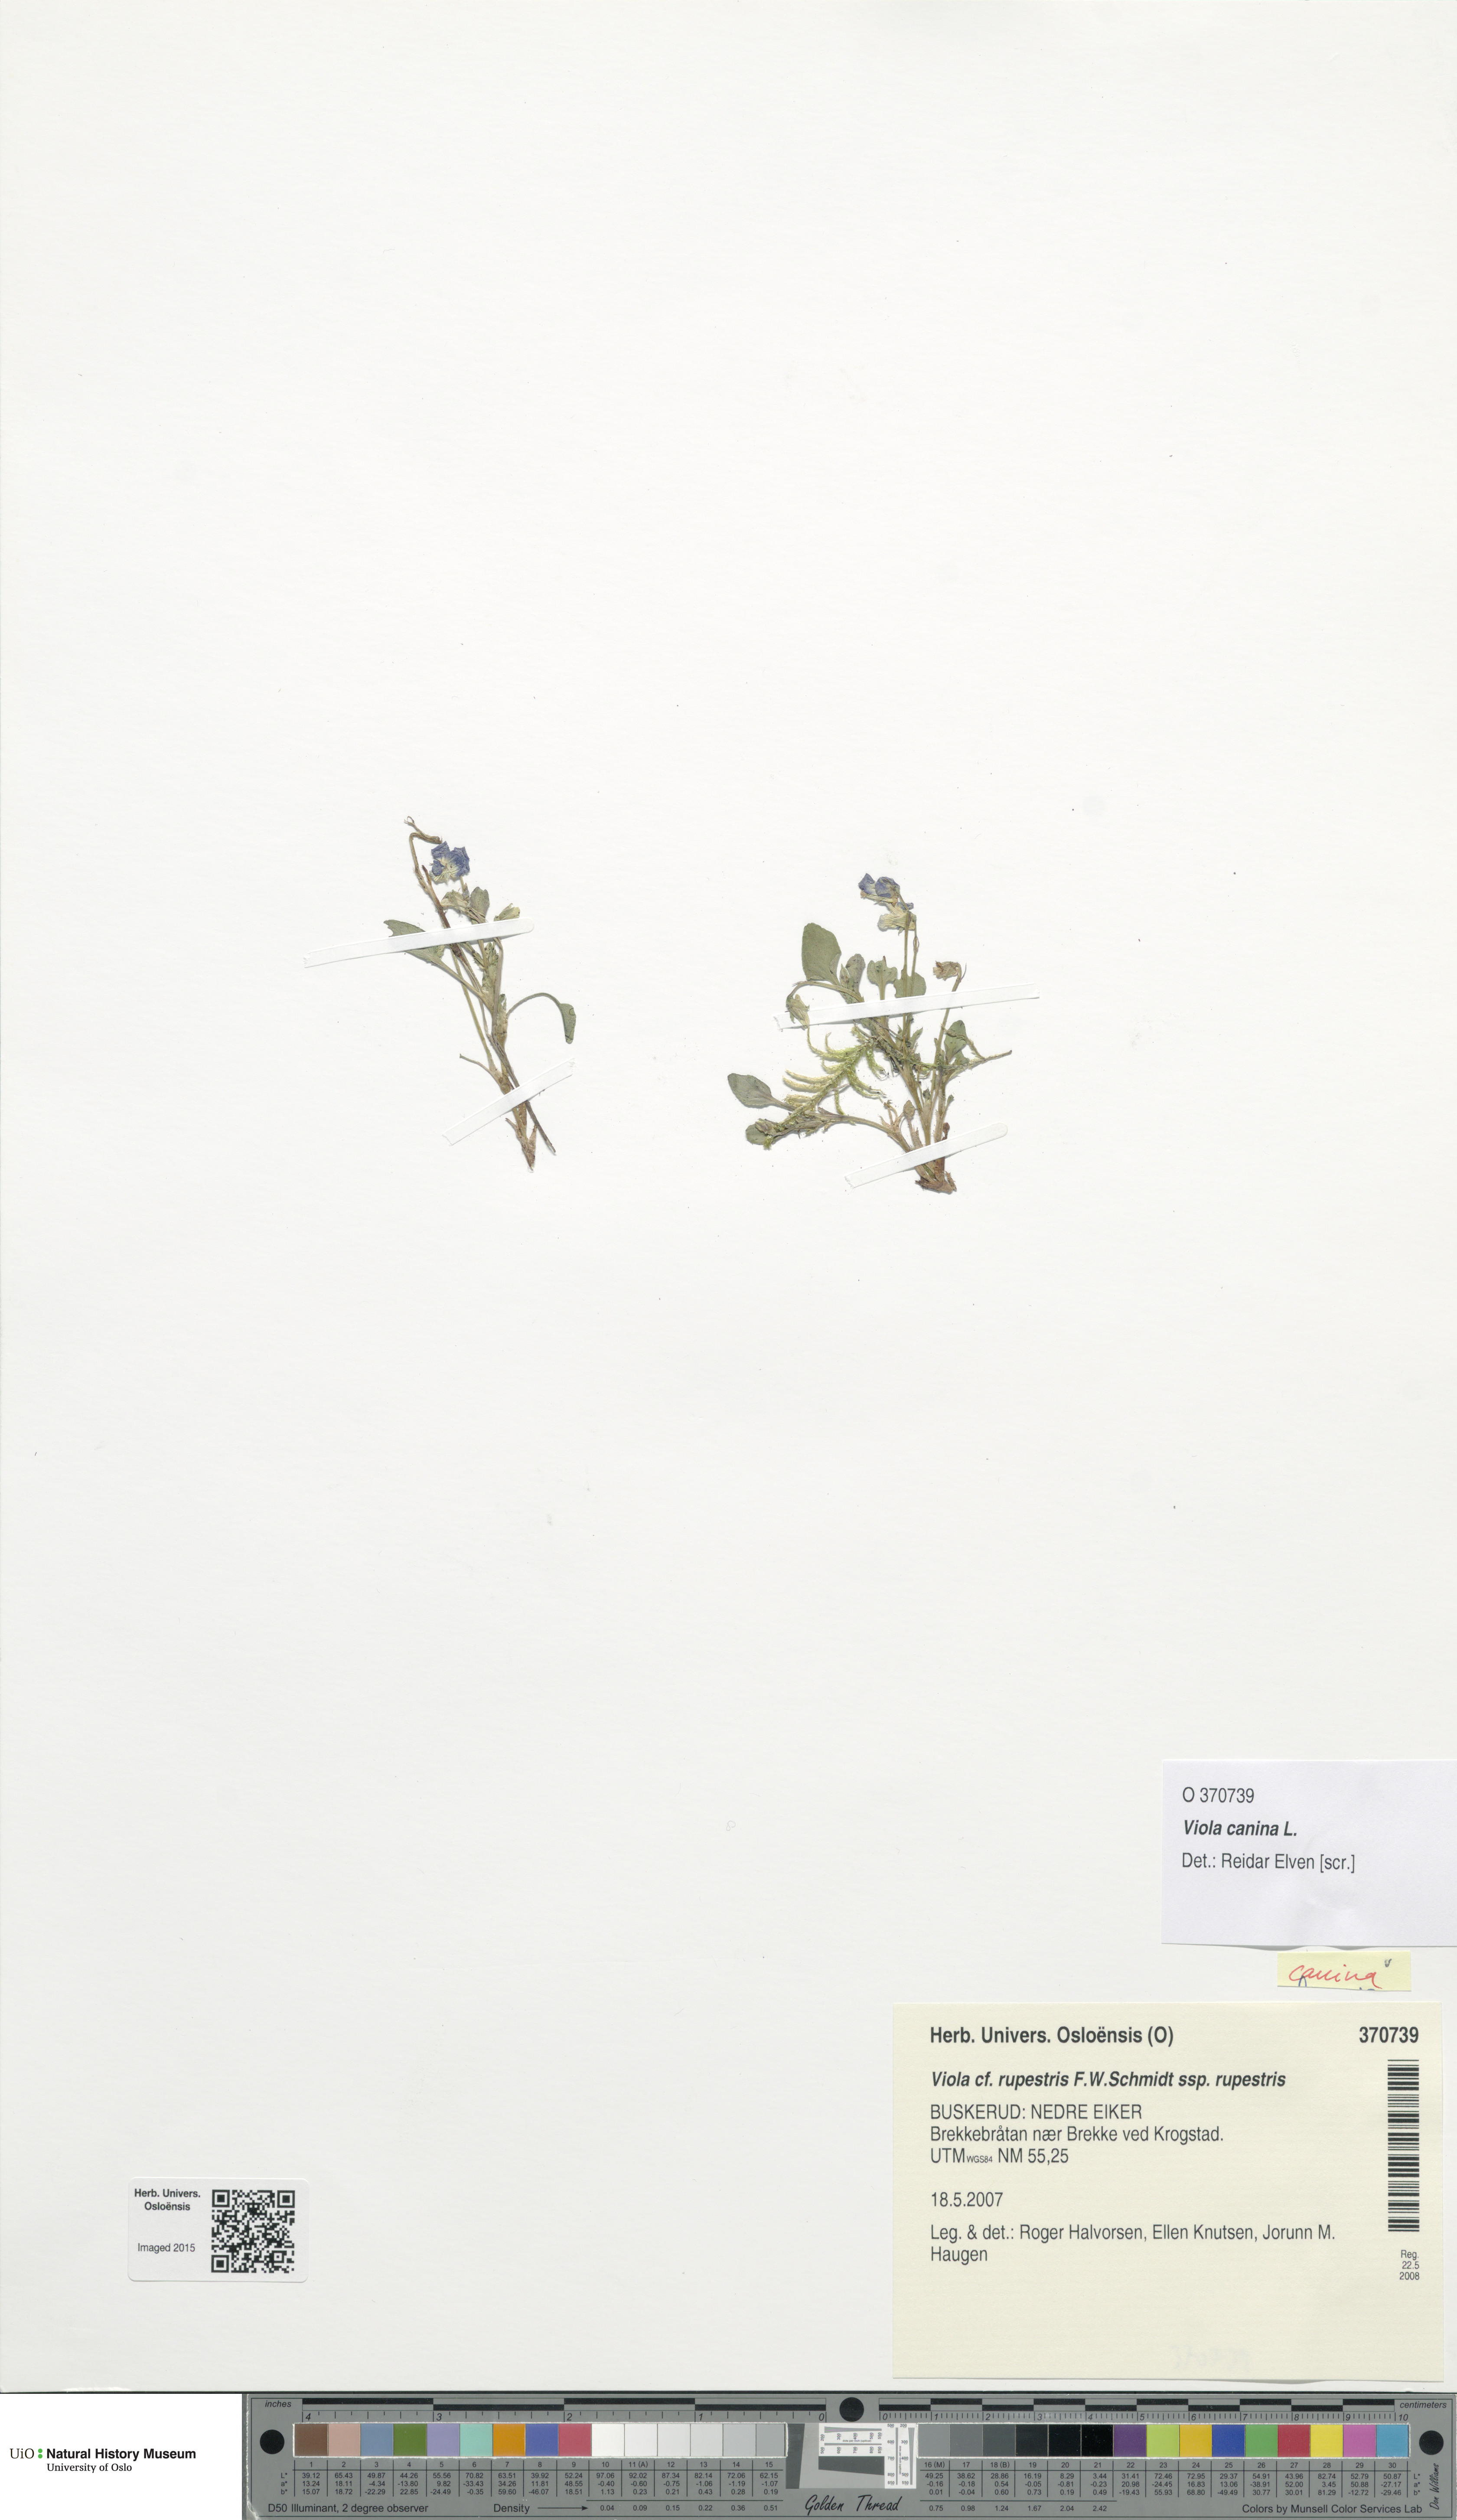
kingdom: Plantae
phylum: Tracheophyta
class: Magnoliopsida
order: Malpighiales
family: Violaceae
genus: Viola
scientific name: Viola canina
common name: Heath dog-violet
